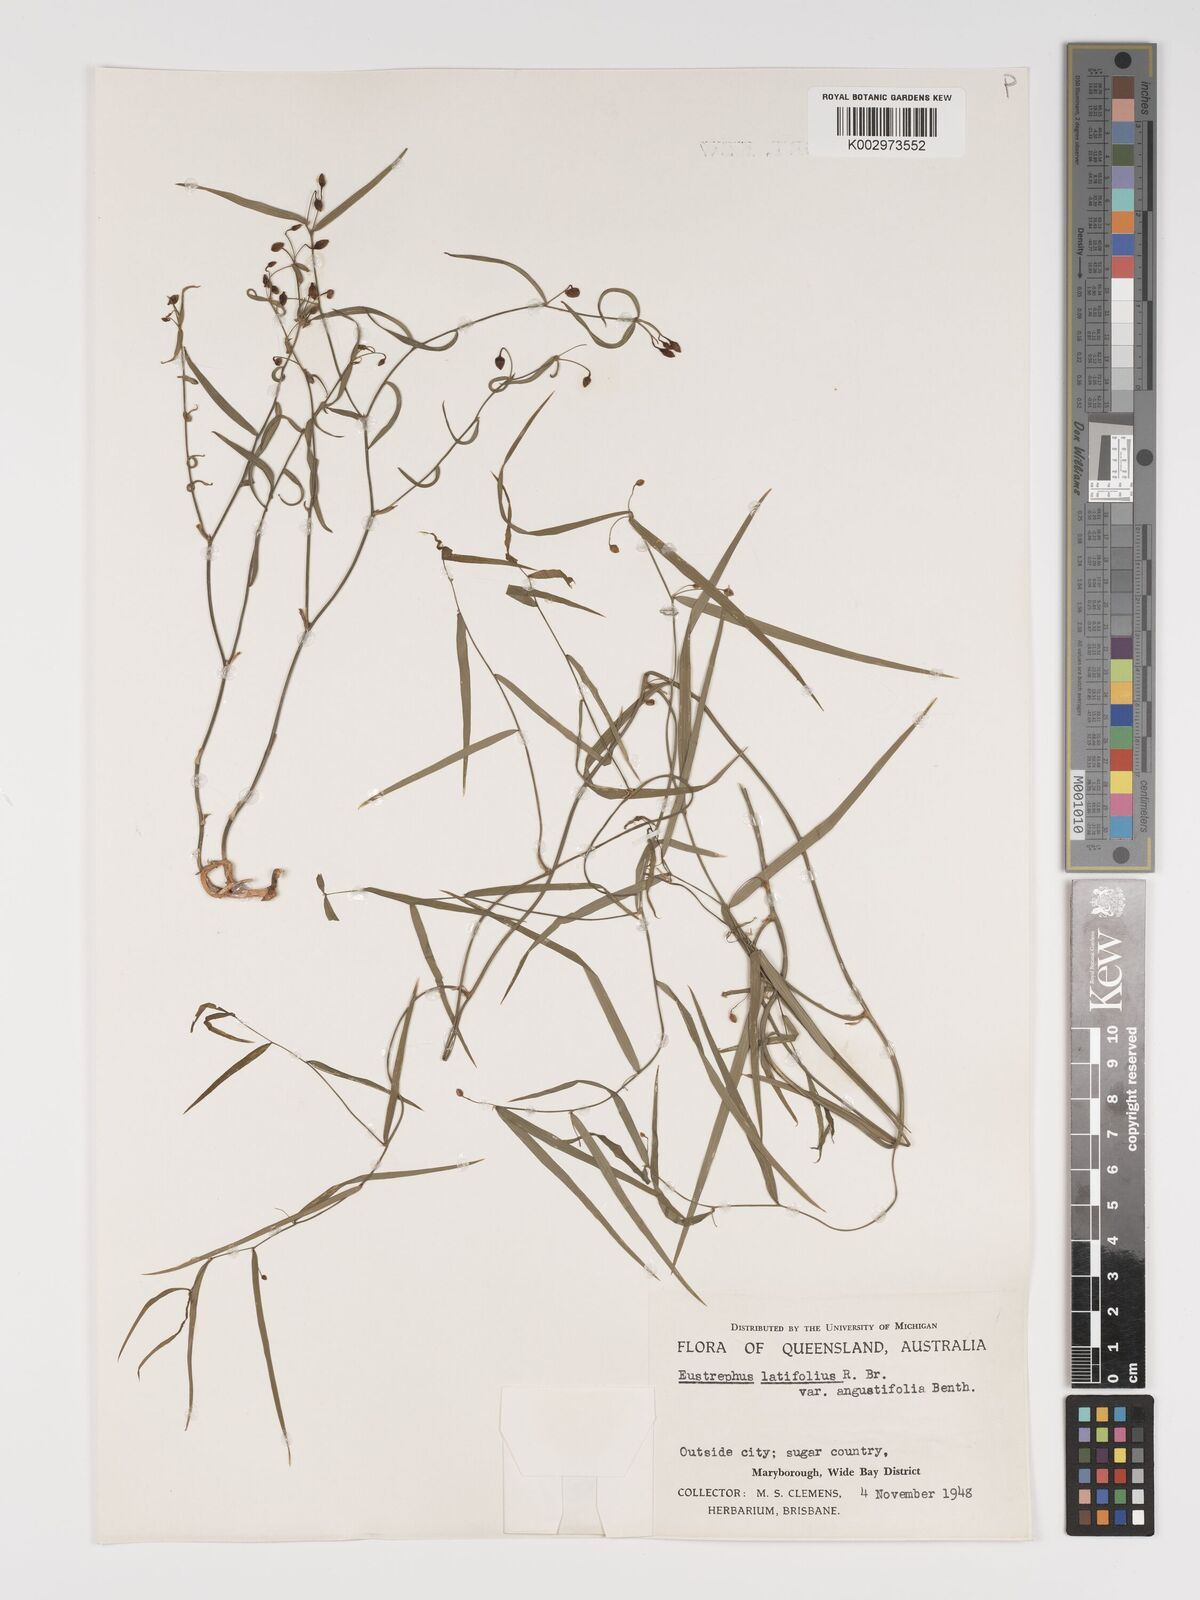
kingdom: Plantae
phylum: Tracheophyta
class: Liliopsida
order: Asparagales
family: Asparagaceae
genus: Eustrephus
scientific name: Eustrephus latifolius
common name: Orangevine
